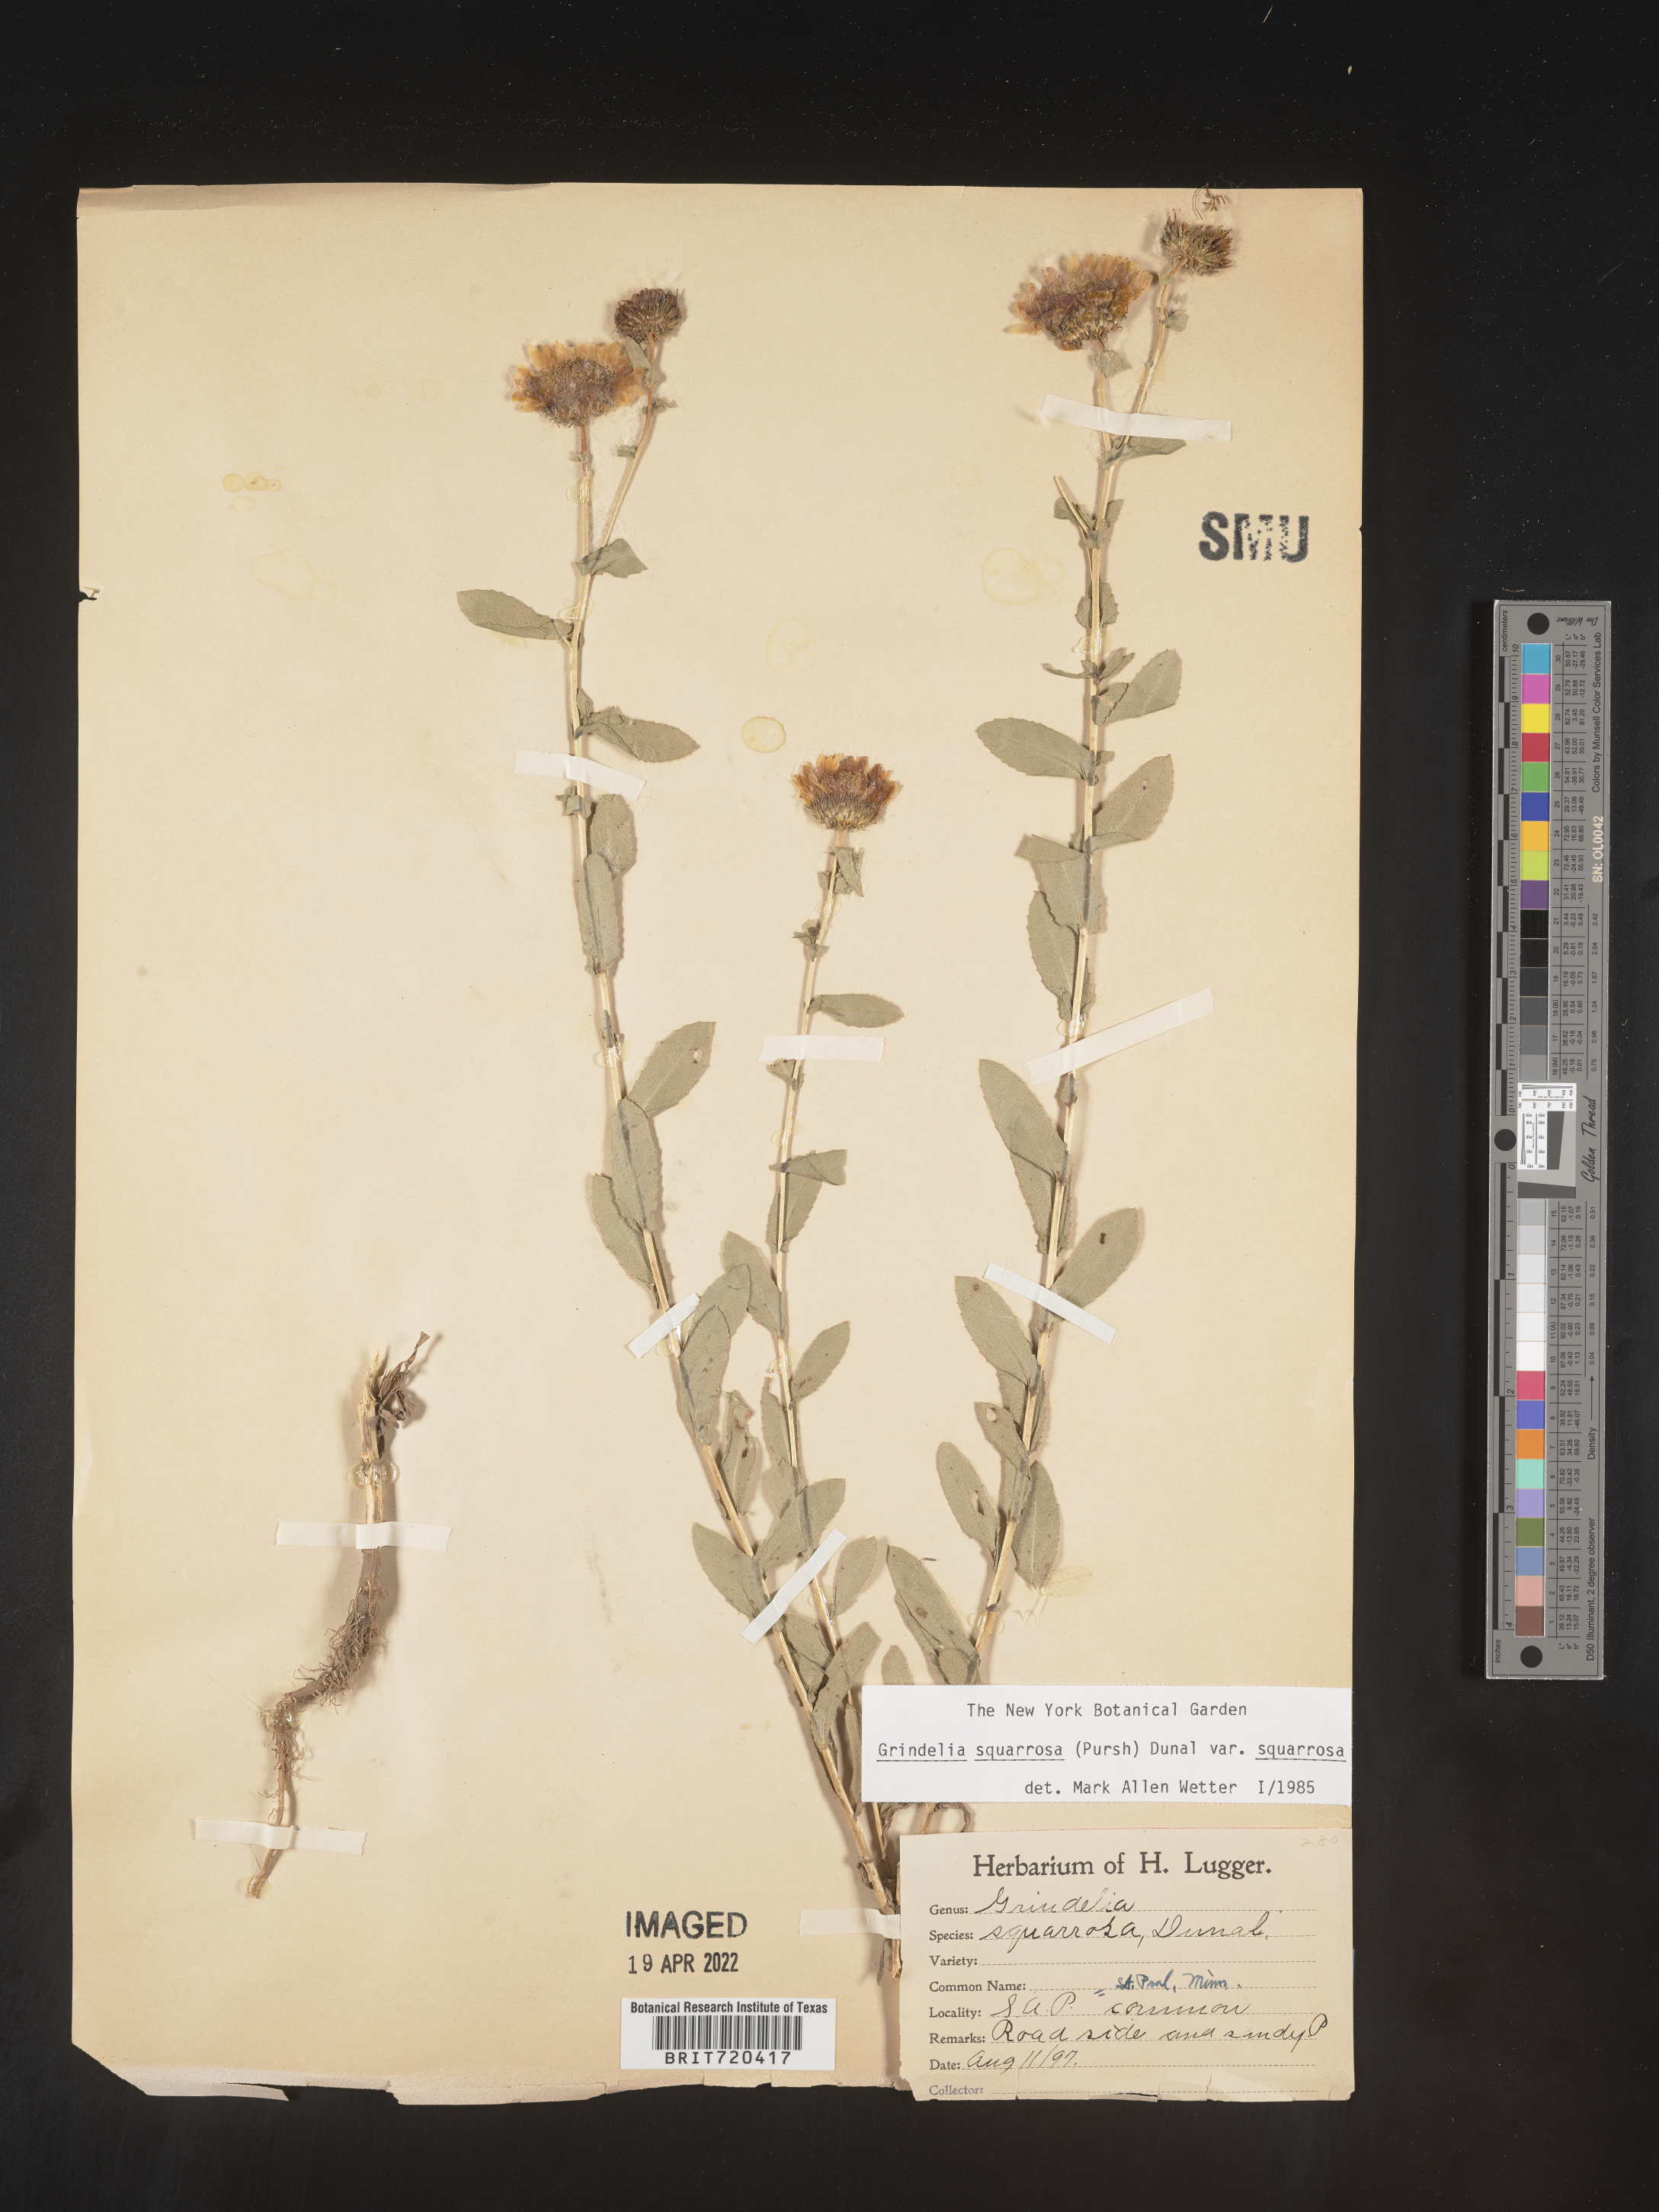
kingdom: Plantae
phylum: Tracheophyta
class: Magnoliopsida
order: Asterales
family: Asteraceae
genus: Grindelia
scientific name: Grindelia squarrosa
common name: Curly-cup gumweed
